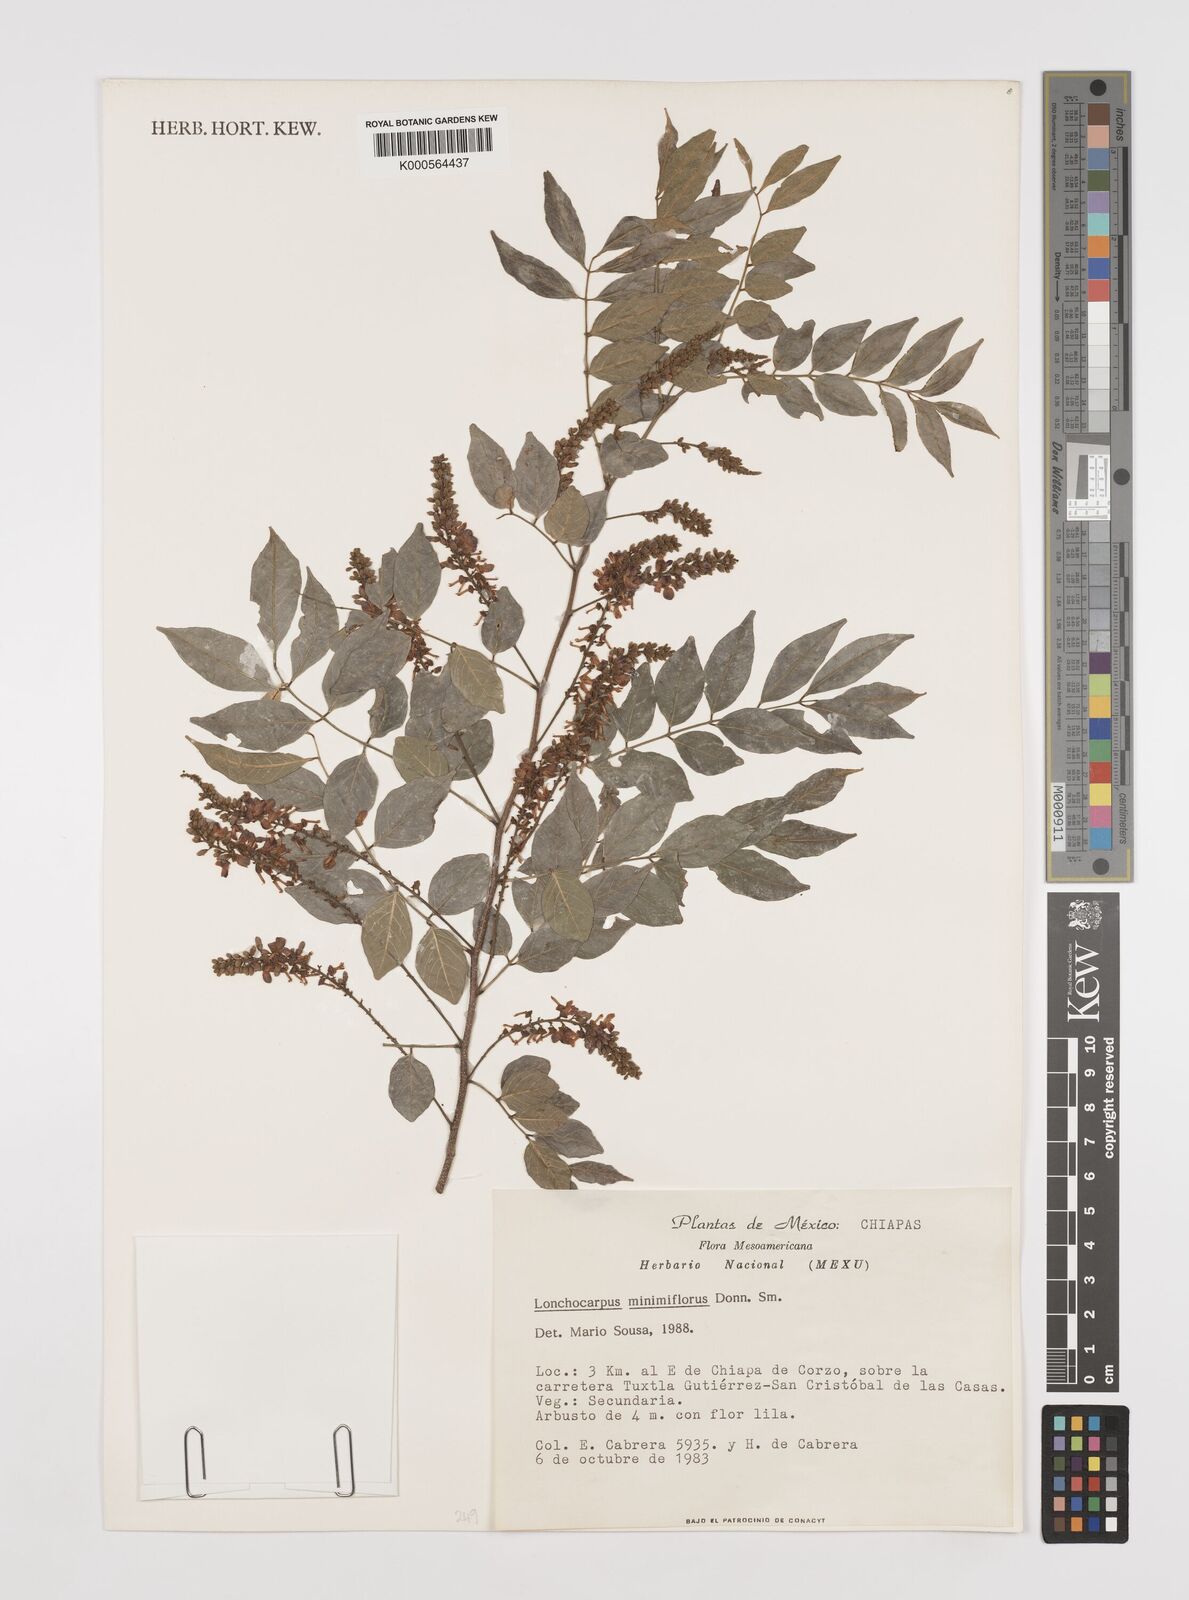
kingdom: Plantae
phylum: Tracheophyta
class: Magnoliopsida
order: Fabales
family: Fabaceae
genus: Lonchocarpus
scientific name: Lonchocarpus minimiflorus
